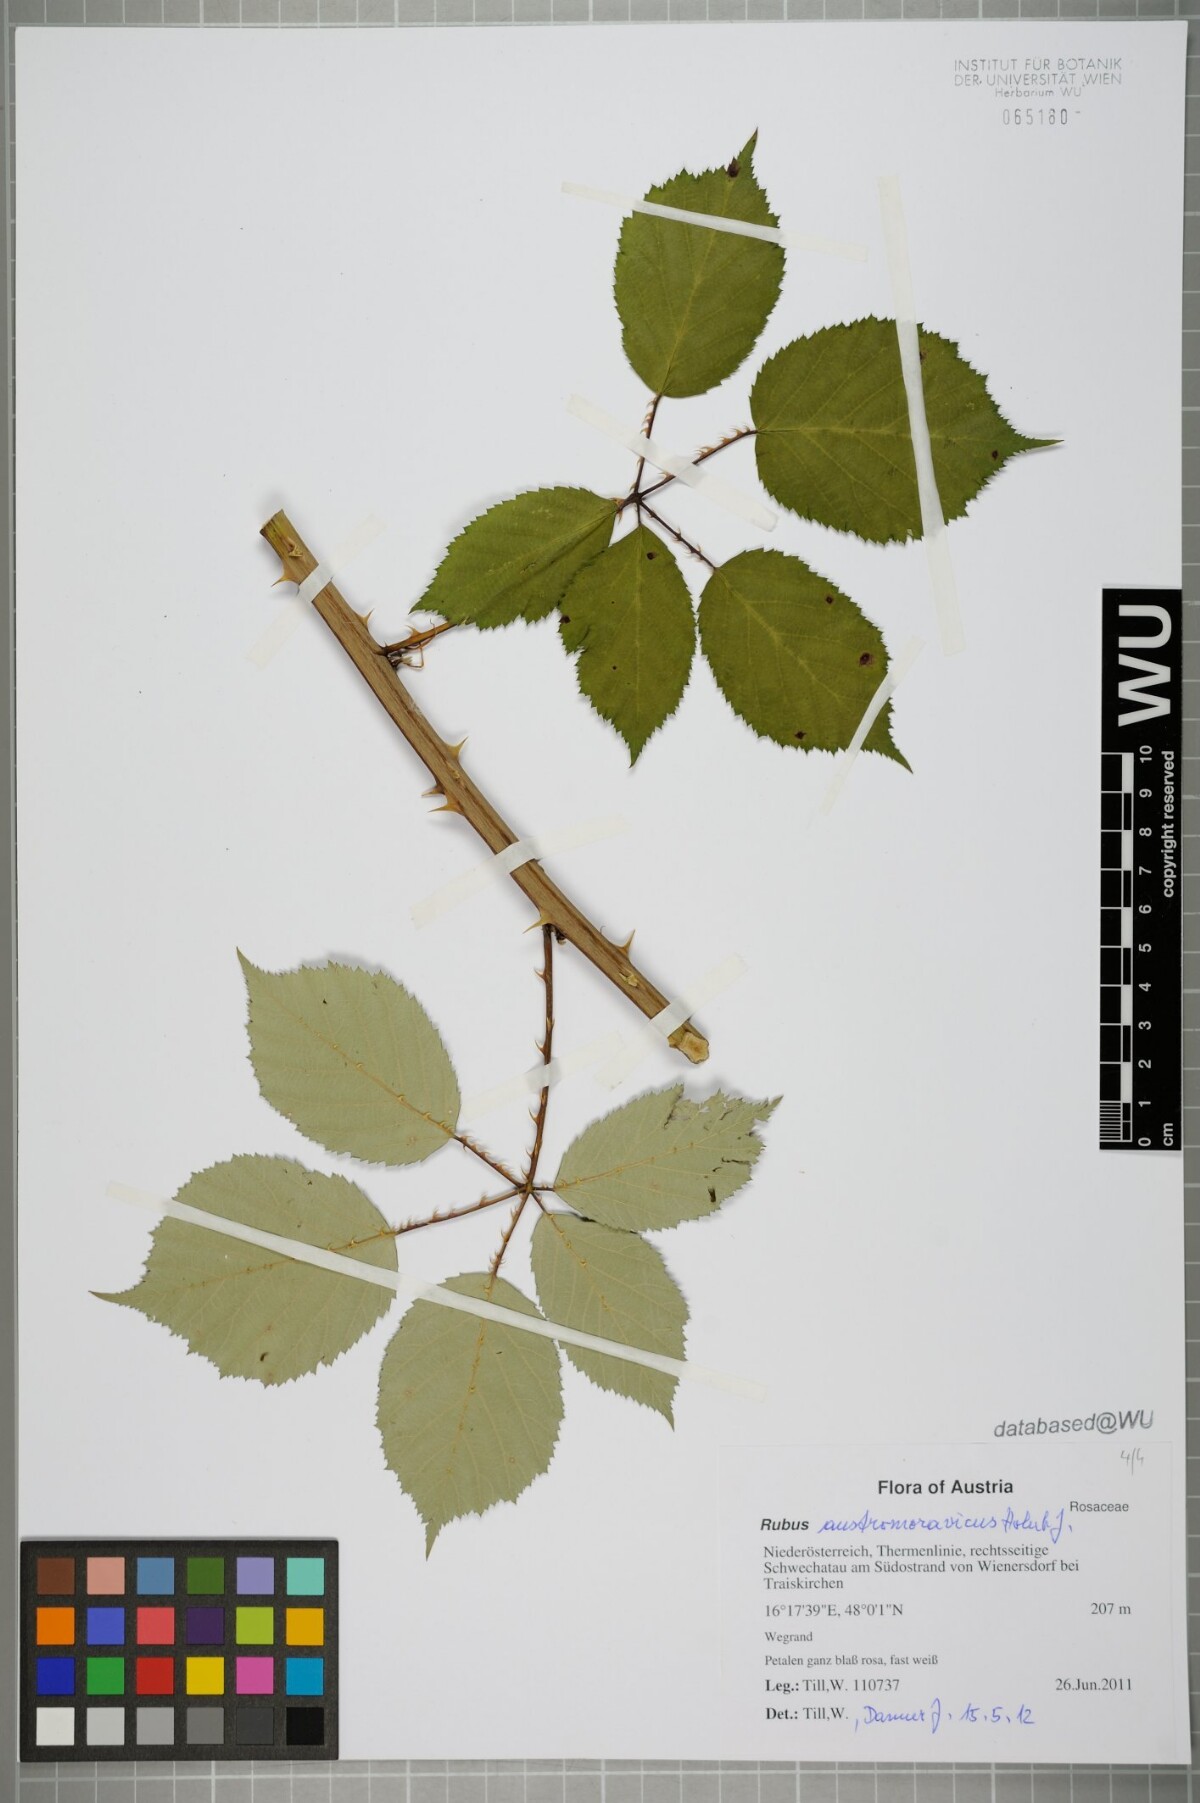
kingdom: Plantae
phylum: Tracheophyta
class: Magnoliopsida
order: Rosales
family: Rosaceae
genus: Rubus
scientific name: Rubus austromoravicus
